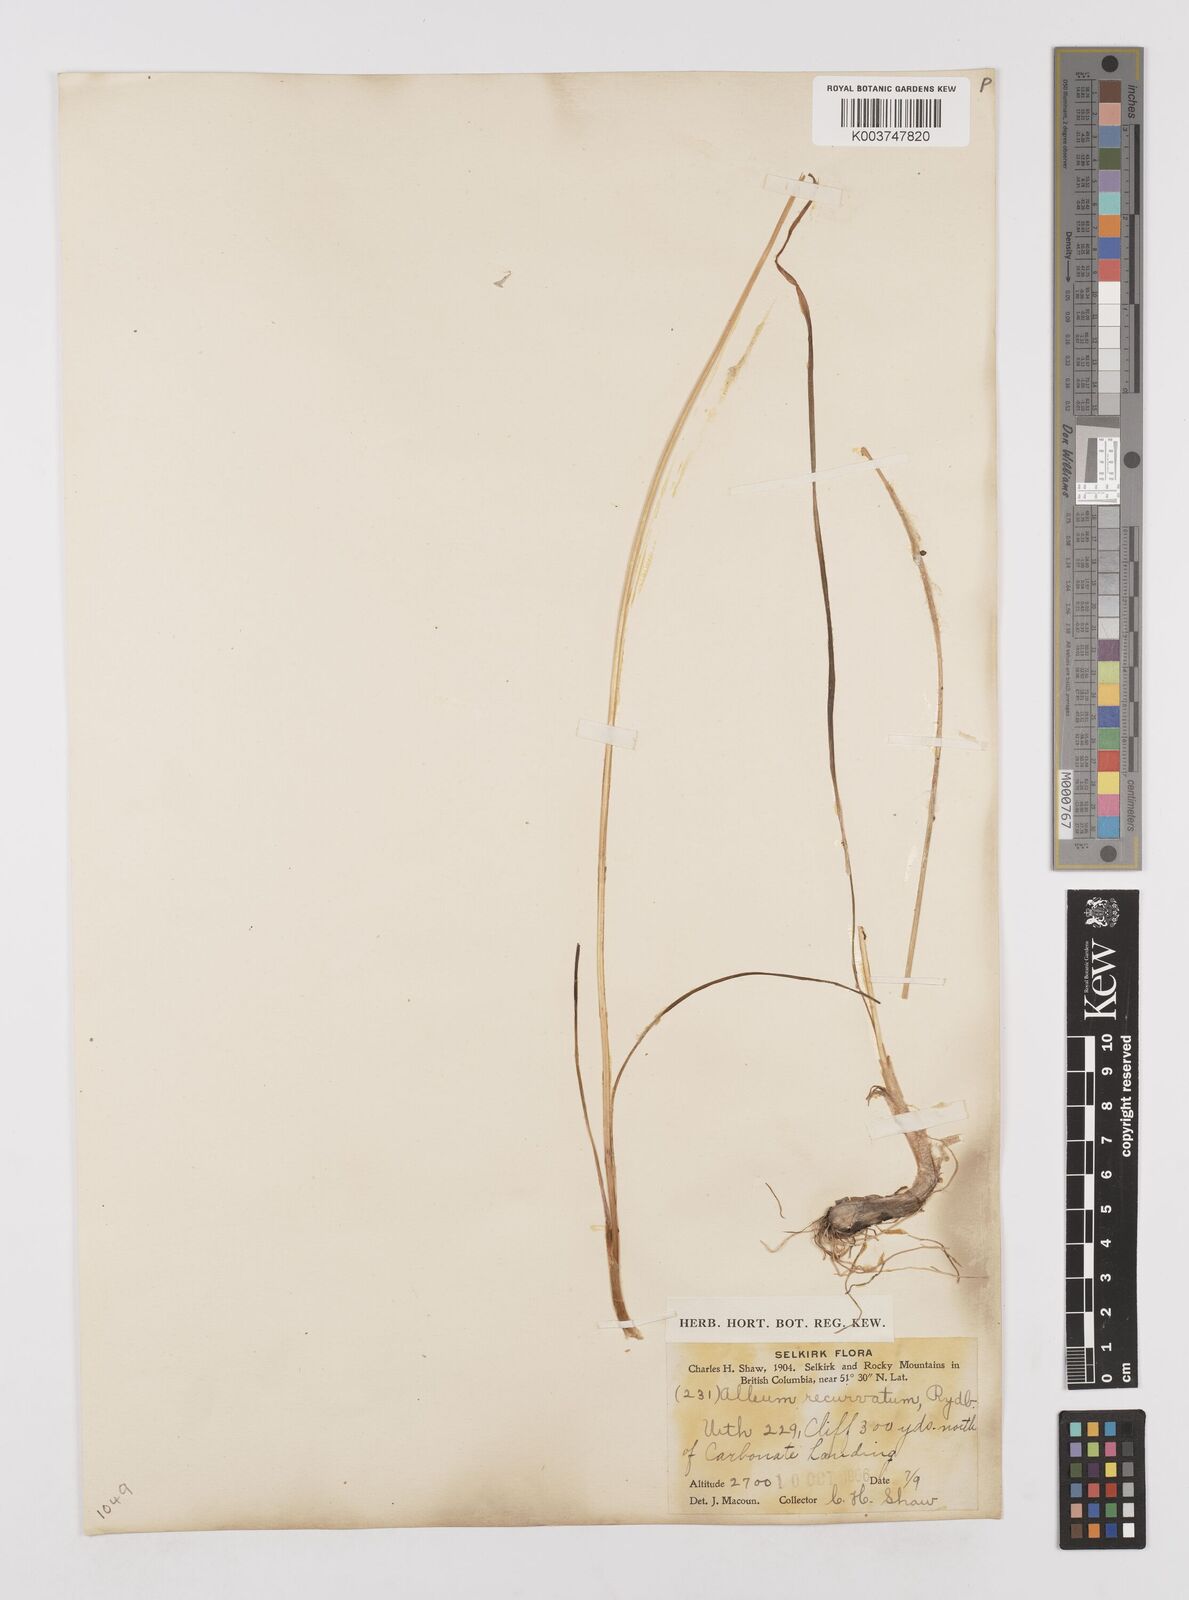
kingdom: Plantae
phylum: Tracheophyta
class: Liliopsida
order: Asparagales
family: Amaryllidaceae
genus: Allium
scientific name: Allium cernuum
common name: Nodding onion
